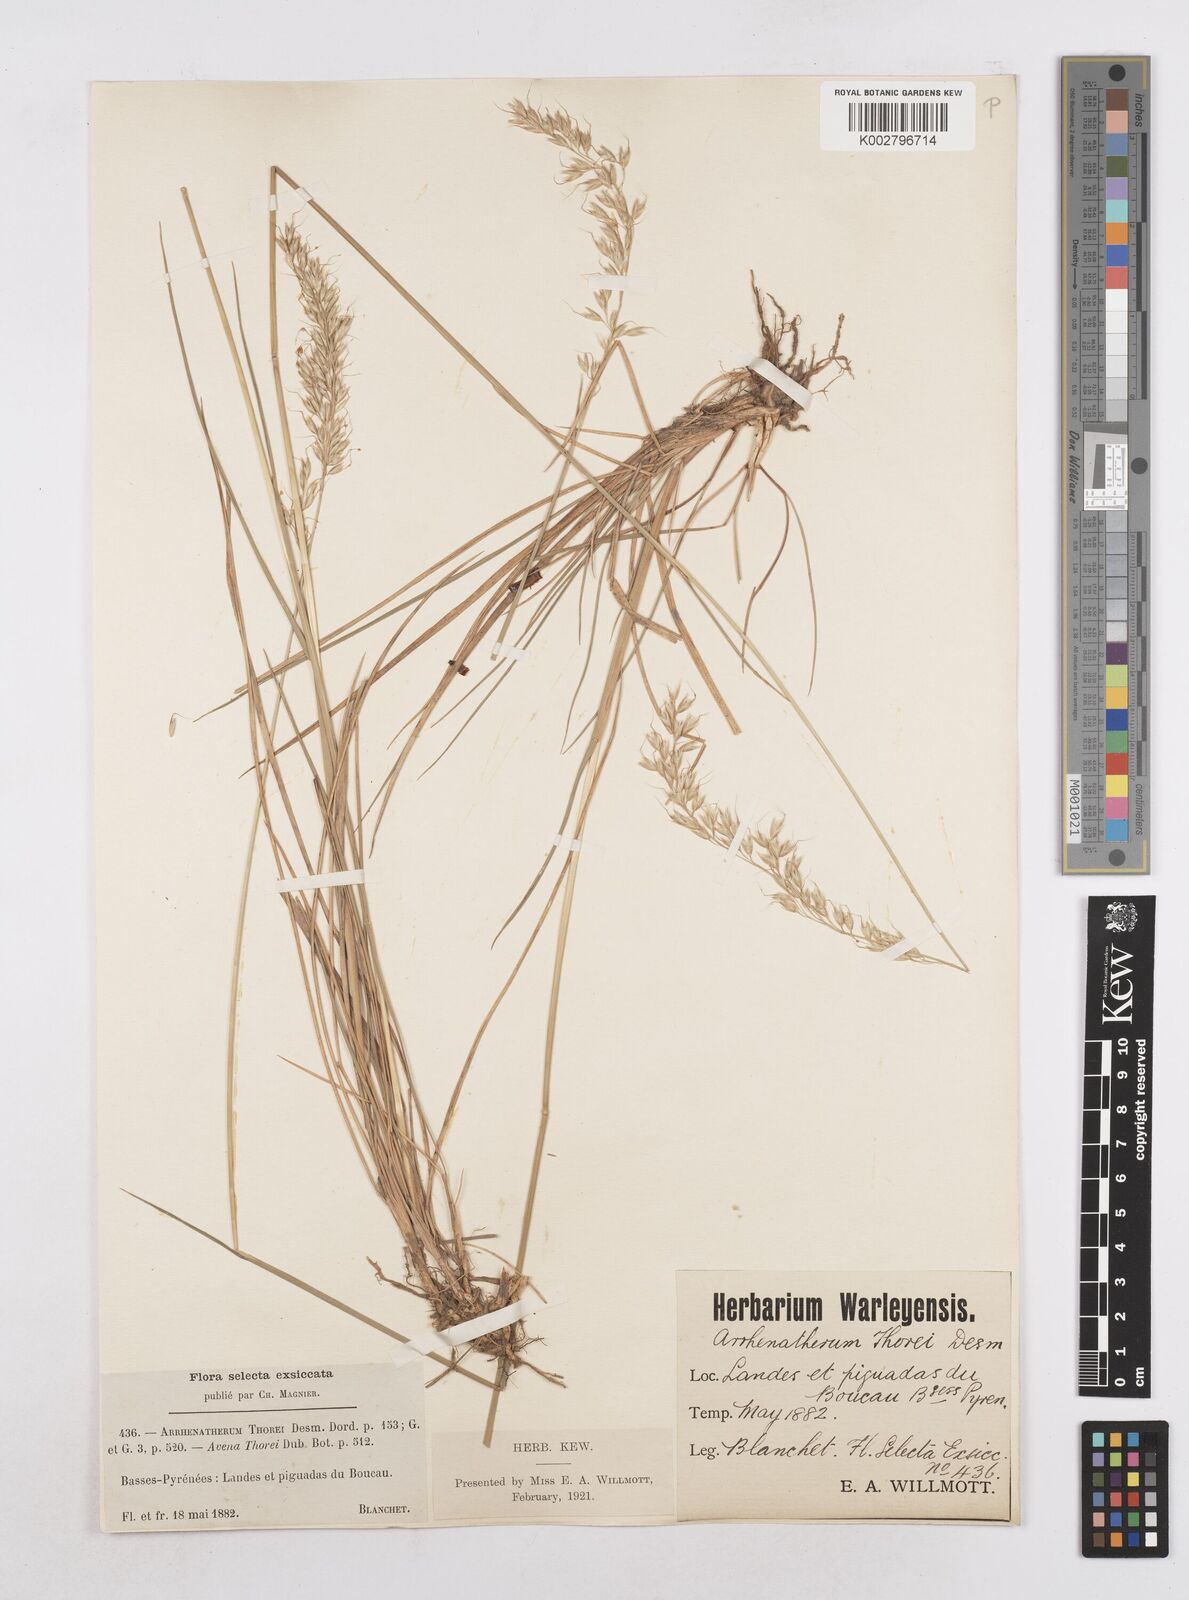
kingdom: Plantae
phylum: Tracheophyta
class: Liliopsida
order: Poales
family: Poaceae
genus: Arrhenatherum
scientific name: Arrhenatherum longifolium
